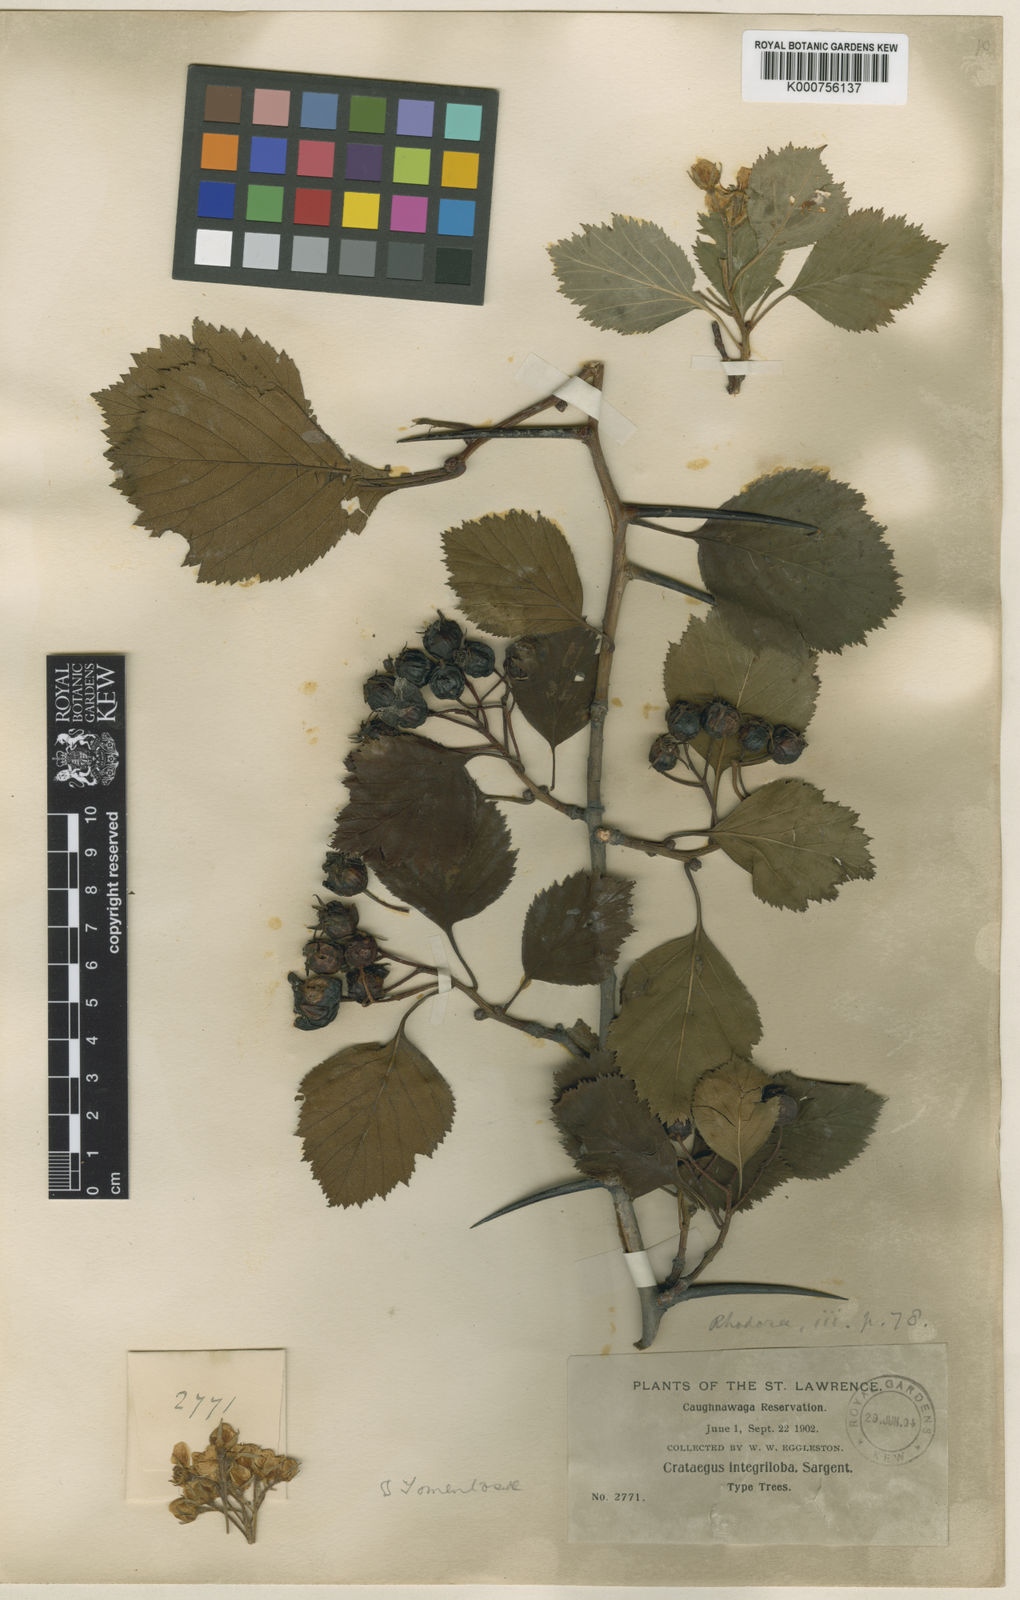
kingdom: Plantae
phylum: Tracheophyta
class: Magnoliopsida
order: Rosales
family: Rosaceae
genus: Crataegus
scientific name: Crataegus succulenta
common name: Fleshy hawthorn
